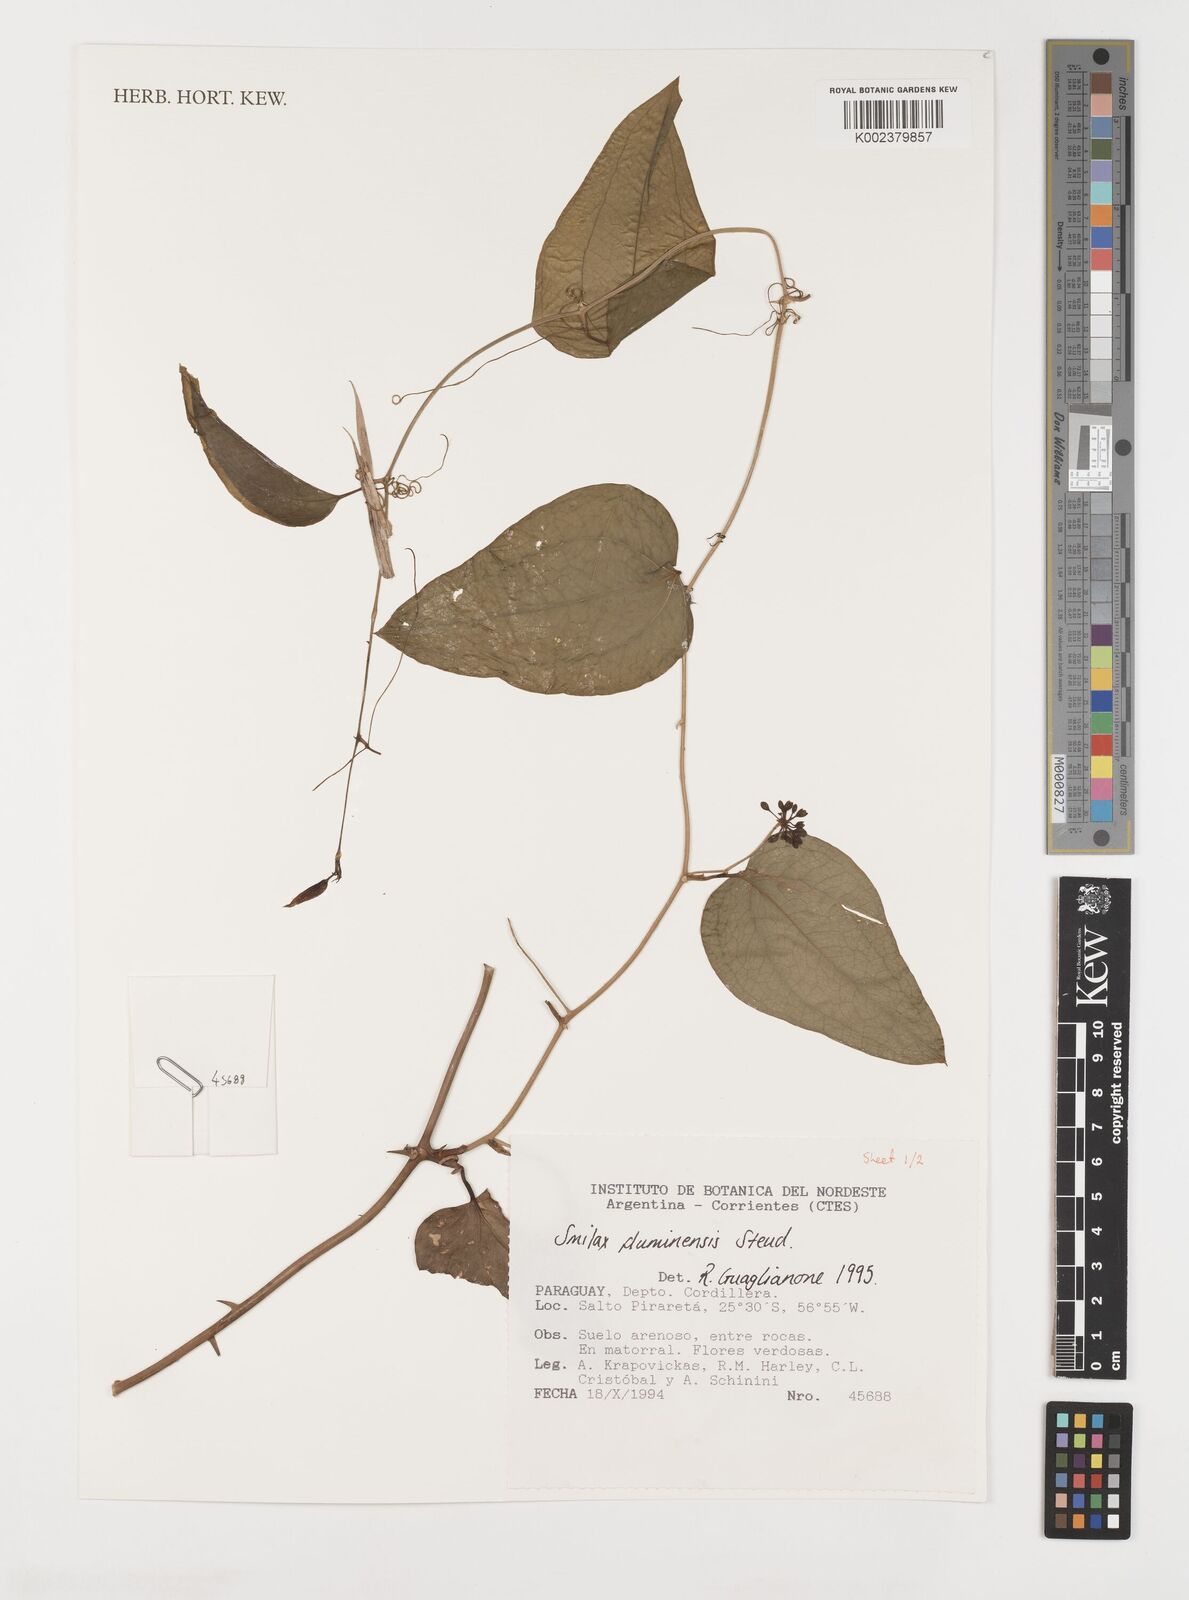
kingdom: Plantae
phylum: Tracheophyta
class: Liliopsida
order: Liliales
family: Smilacaceae
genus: Smilax
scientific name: Smilax fluminensis
